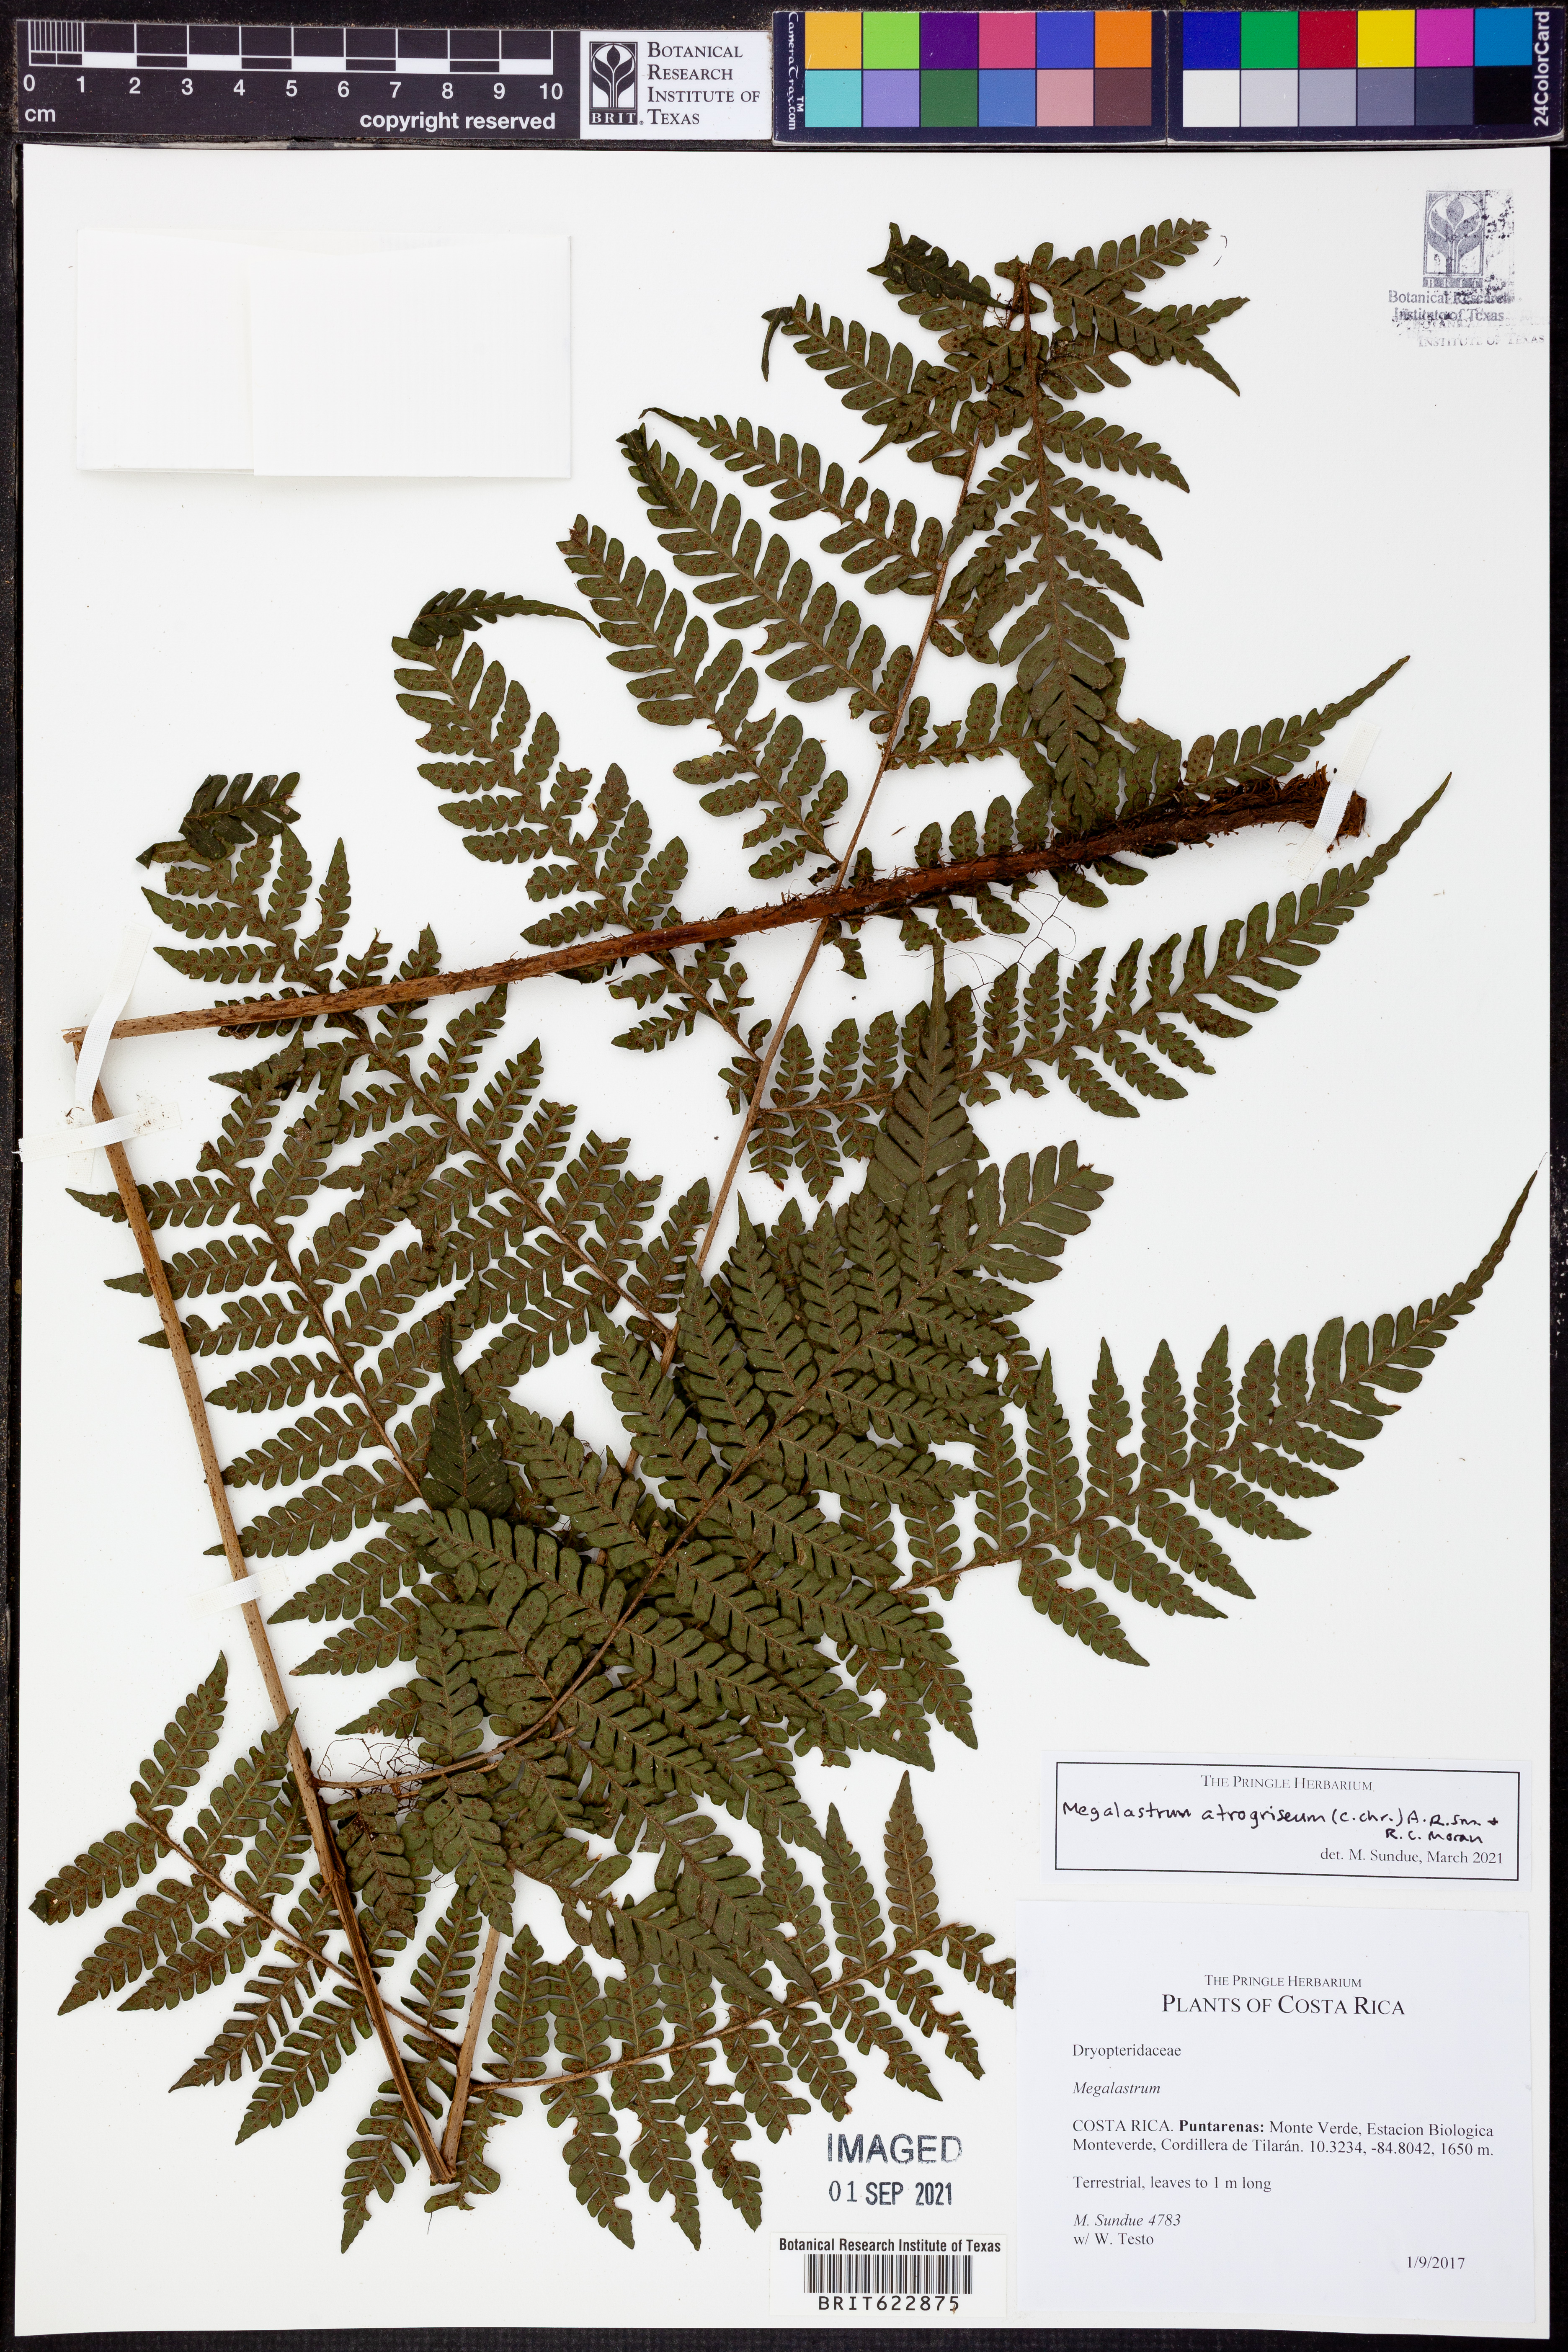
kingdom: Plantae
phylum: Tracheophyta
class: Polypodiopsida
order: Polypodiales
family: Dryopteridaceae
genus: Megalastrum
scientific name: Megalastrum atrogriseum
